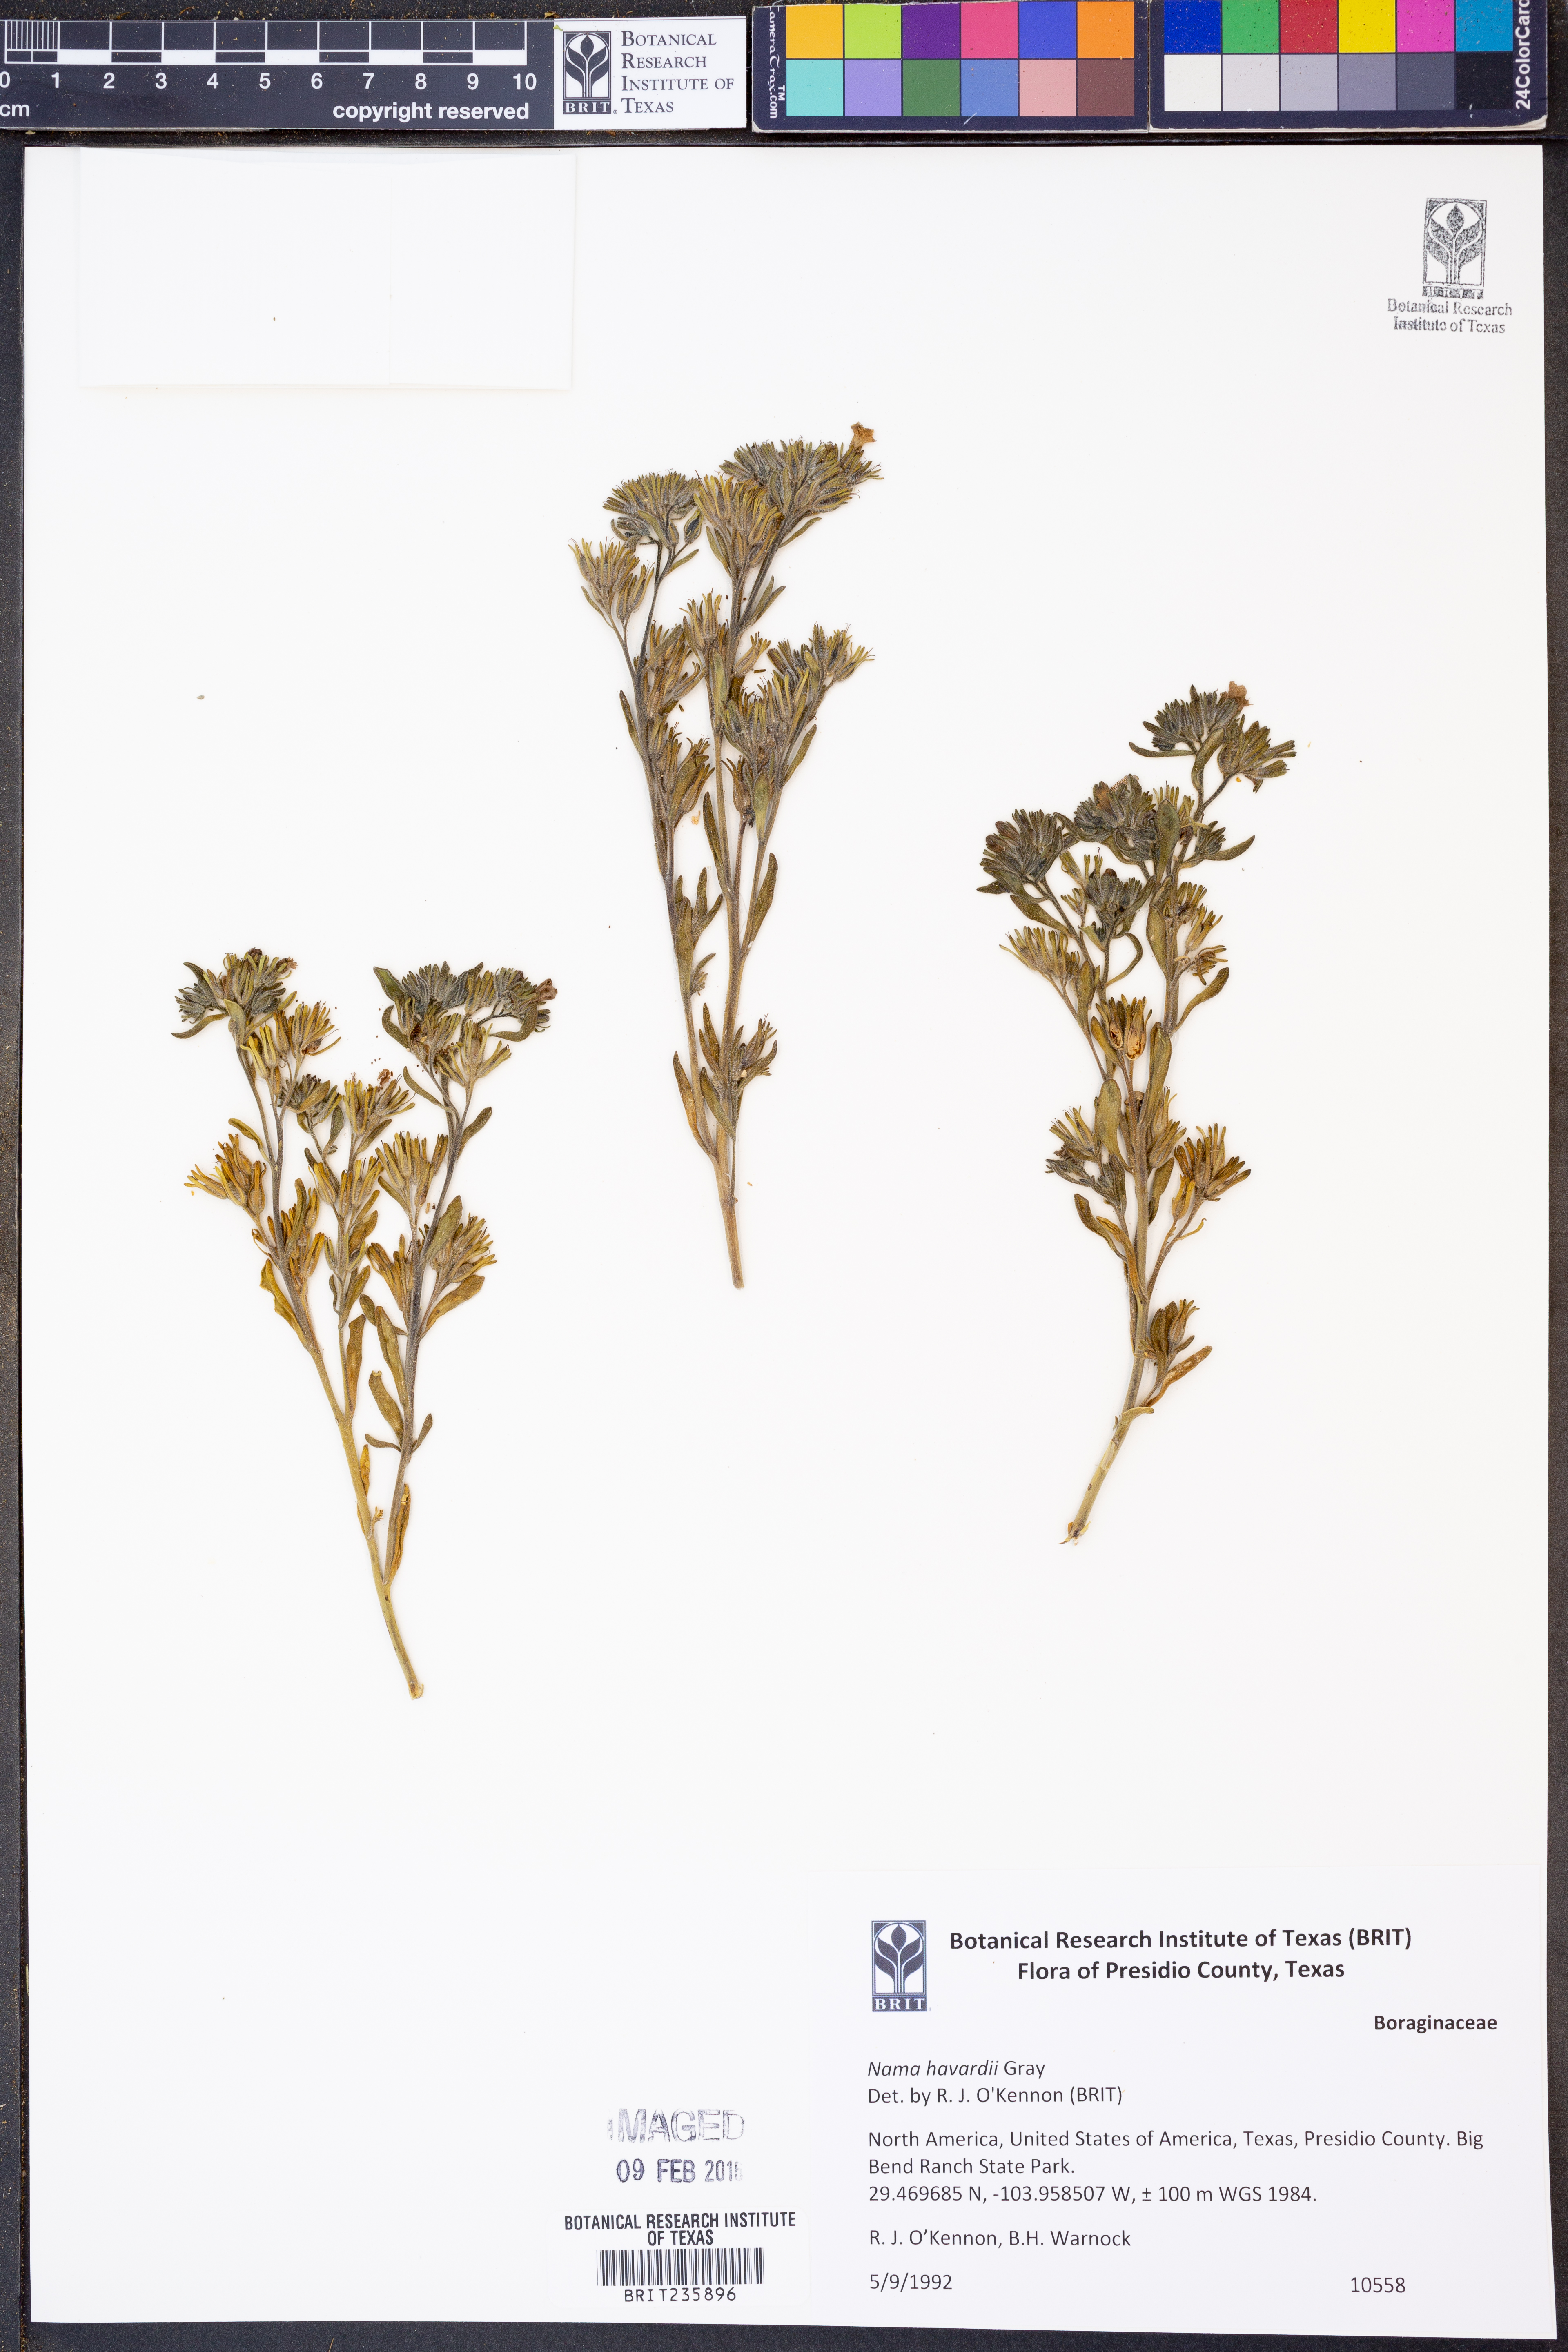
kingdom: Plantae
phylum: Tracheophyta
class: Magnoliopsida
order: Boraginales
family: Namaceae
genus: Nama
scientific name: Nama havardii
